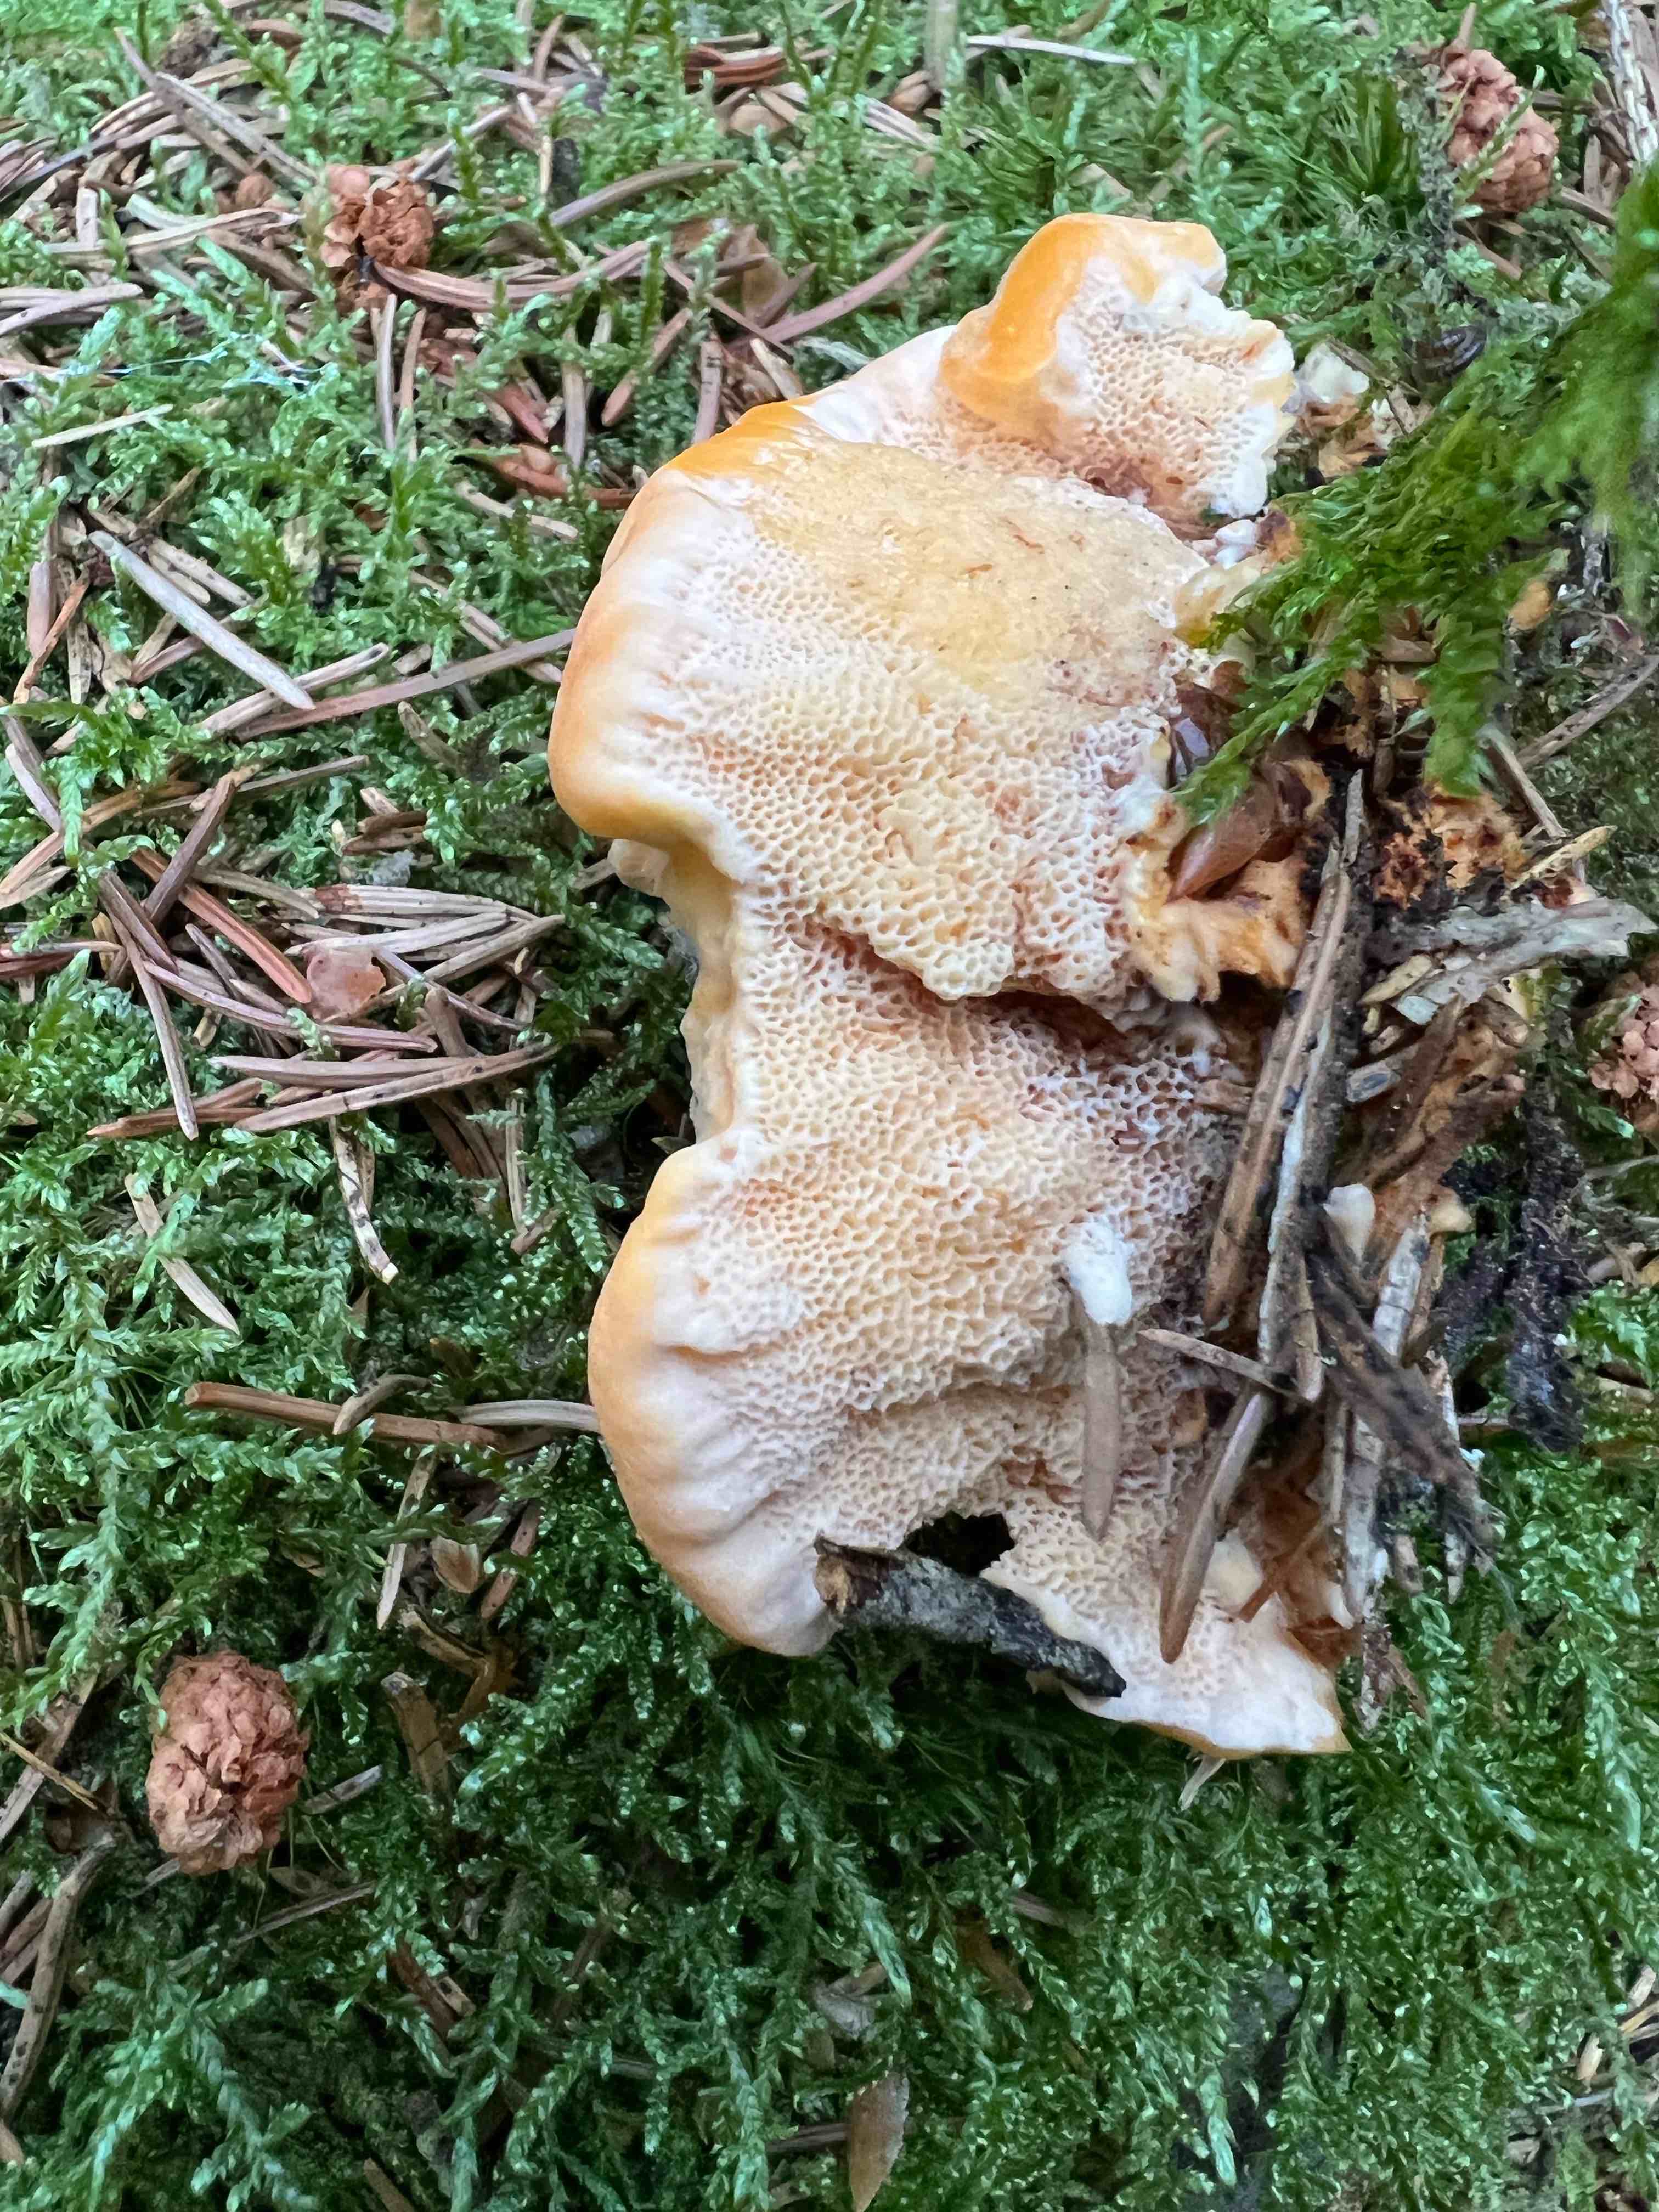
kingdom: Fungi
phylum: Basidiomycota
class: Agaricomycetes
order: Polyporales
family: Pycnoporellaceae
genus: Pycnoporellus
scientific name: Pycnoporellus fulgens
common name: flammeporesvamp
